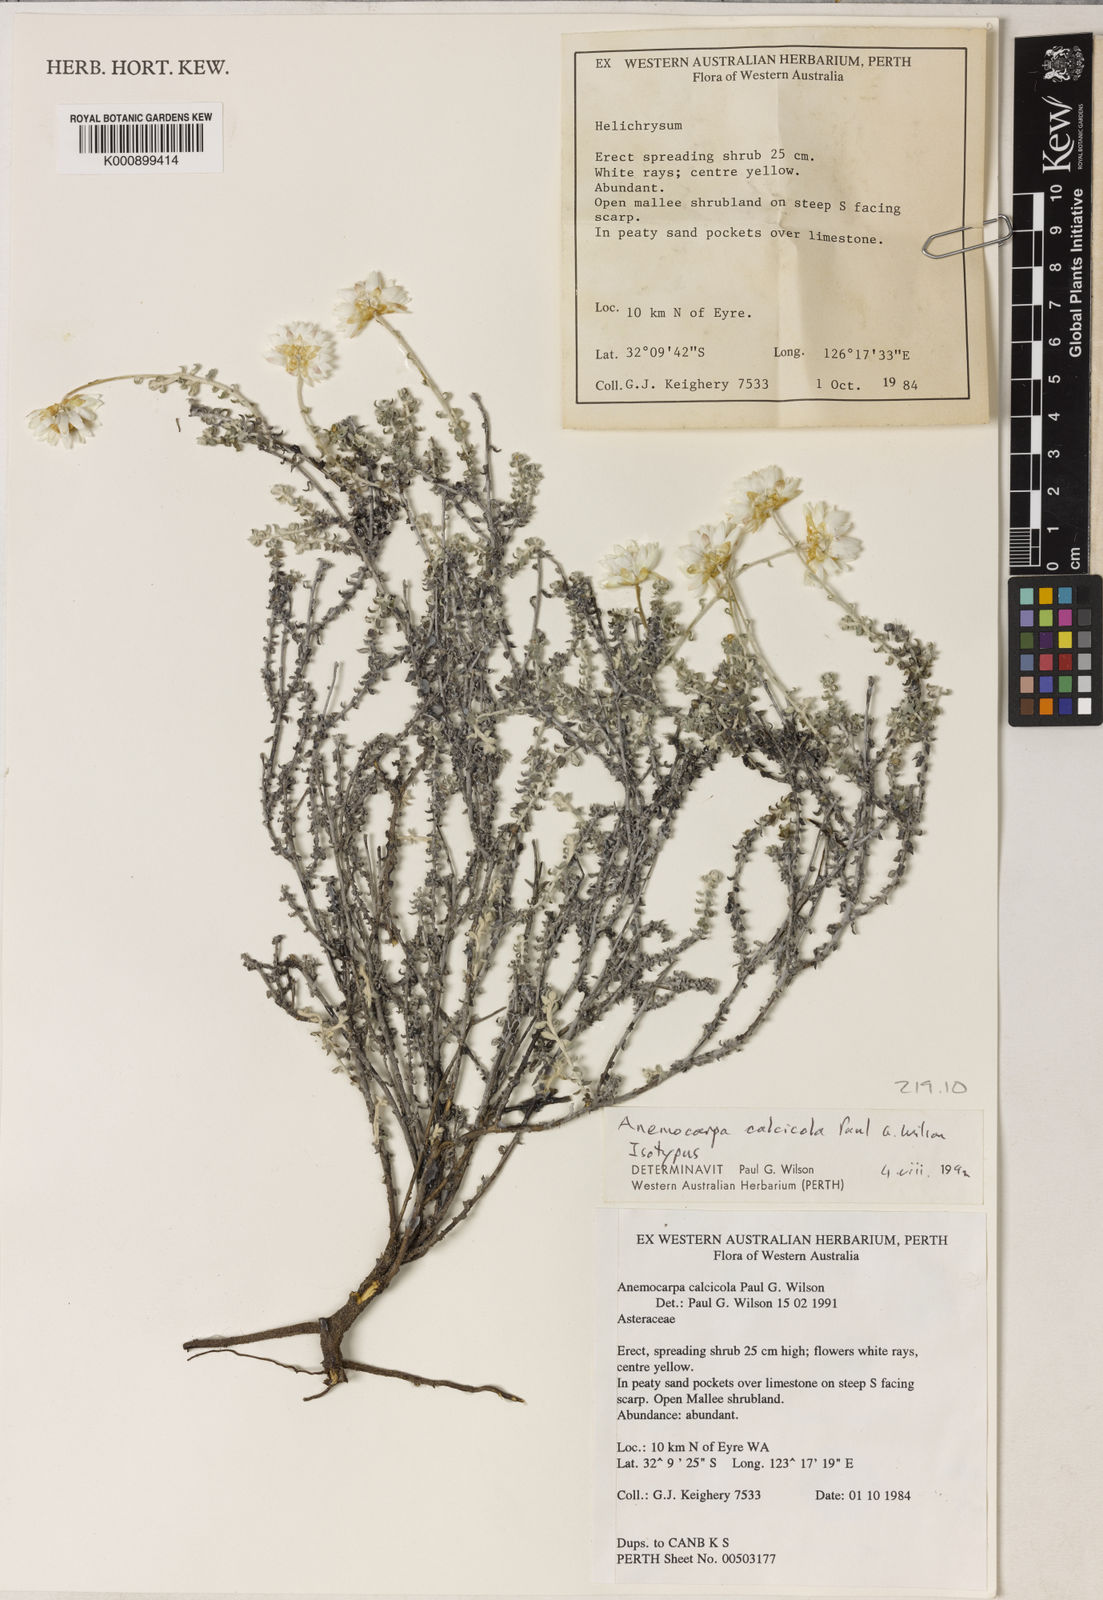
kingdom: Plantae
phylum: Tracheophyta
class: Magnoliopsida
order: Asterales
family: Asteraceae
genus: Anemocarpa
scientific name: Anemocarpa calcicola
